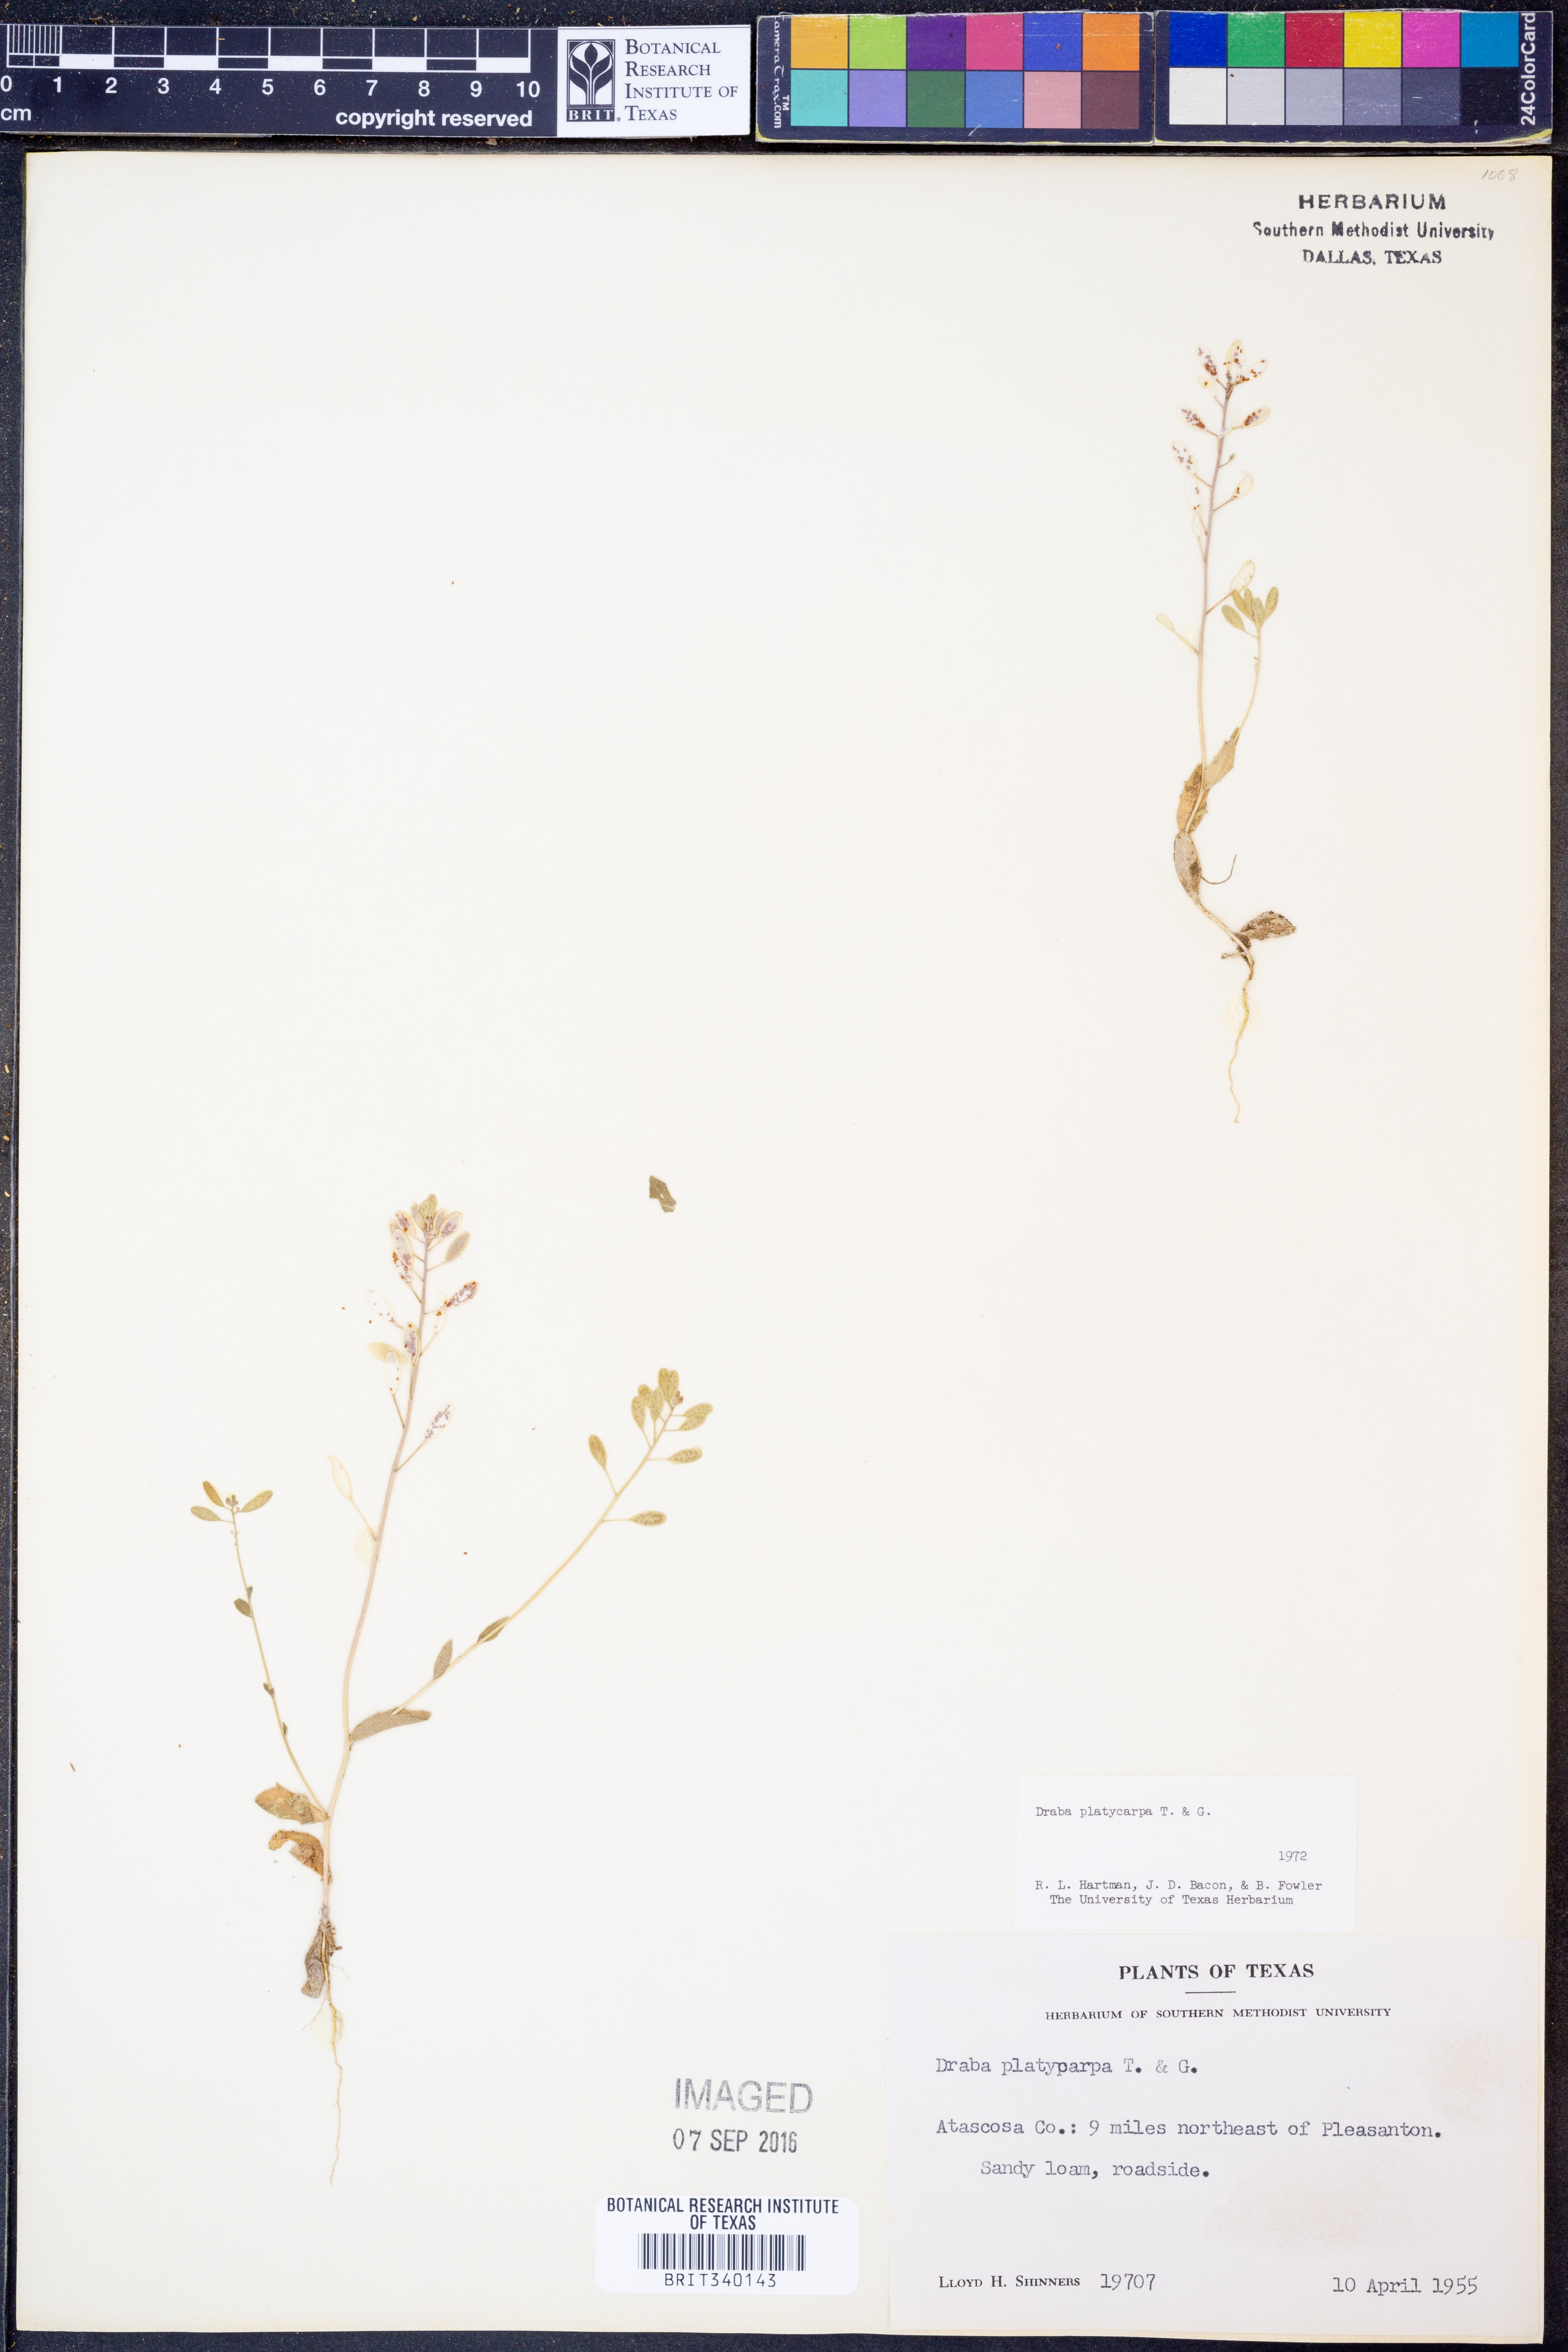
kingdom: Plantae
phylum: Tracheophyta
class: Magnoliopsida
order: Brassicales
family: Brassicaceae
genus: Tomostima
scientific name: Tomostima platycarpa
